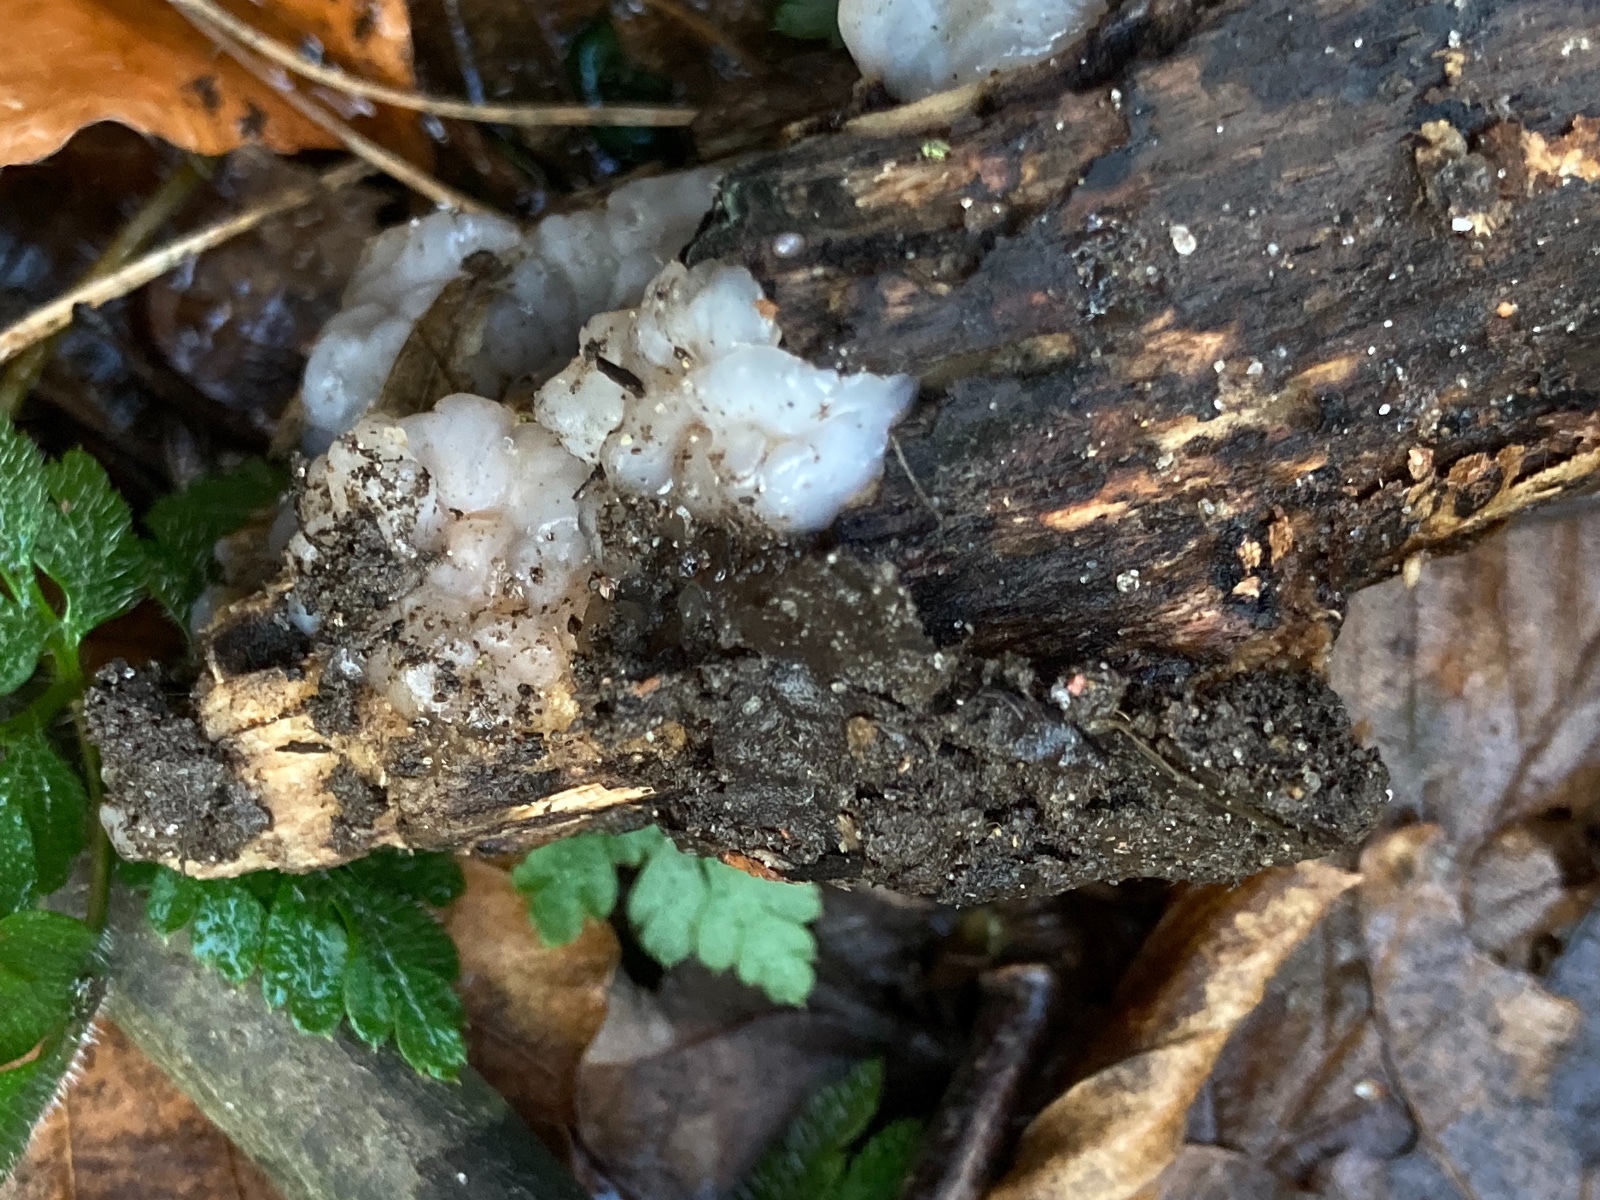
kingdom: Fungi
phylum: Basidiomycota
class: Agaricomycetes
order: Auriculariales
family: Auriculariaceae
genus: Exidia
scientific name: Exidia thuretiana
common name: hvidlig bævretop
